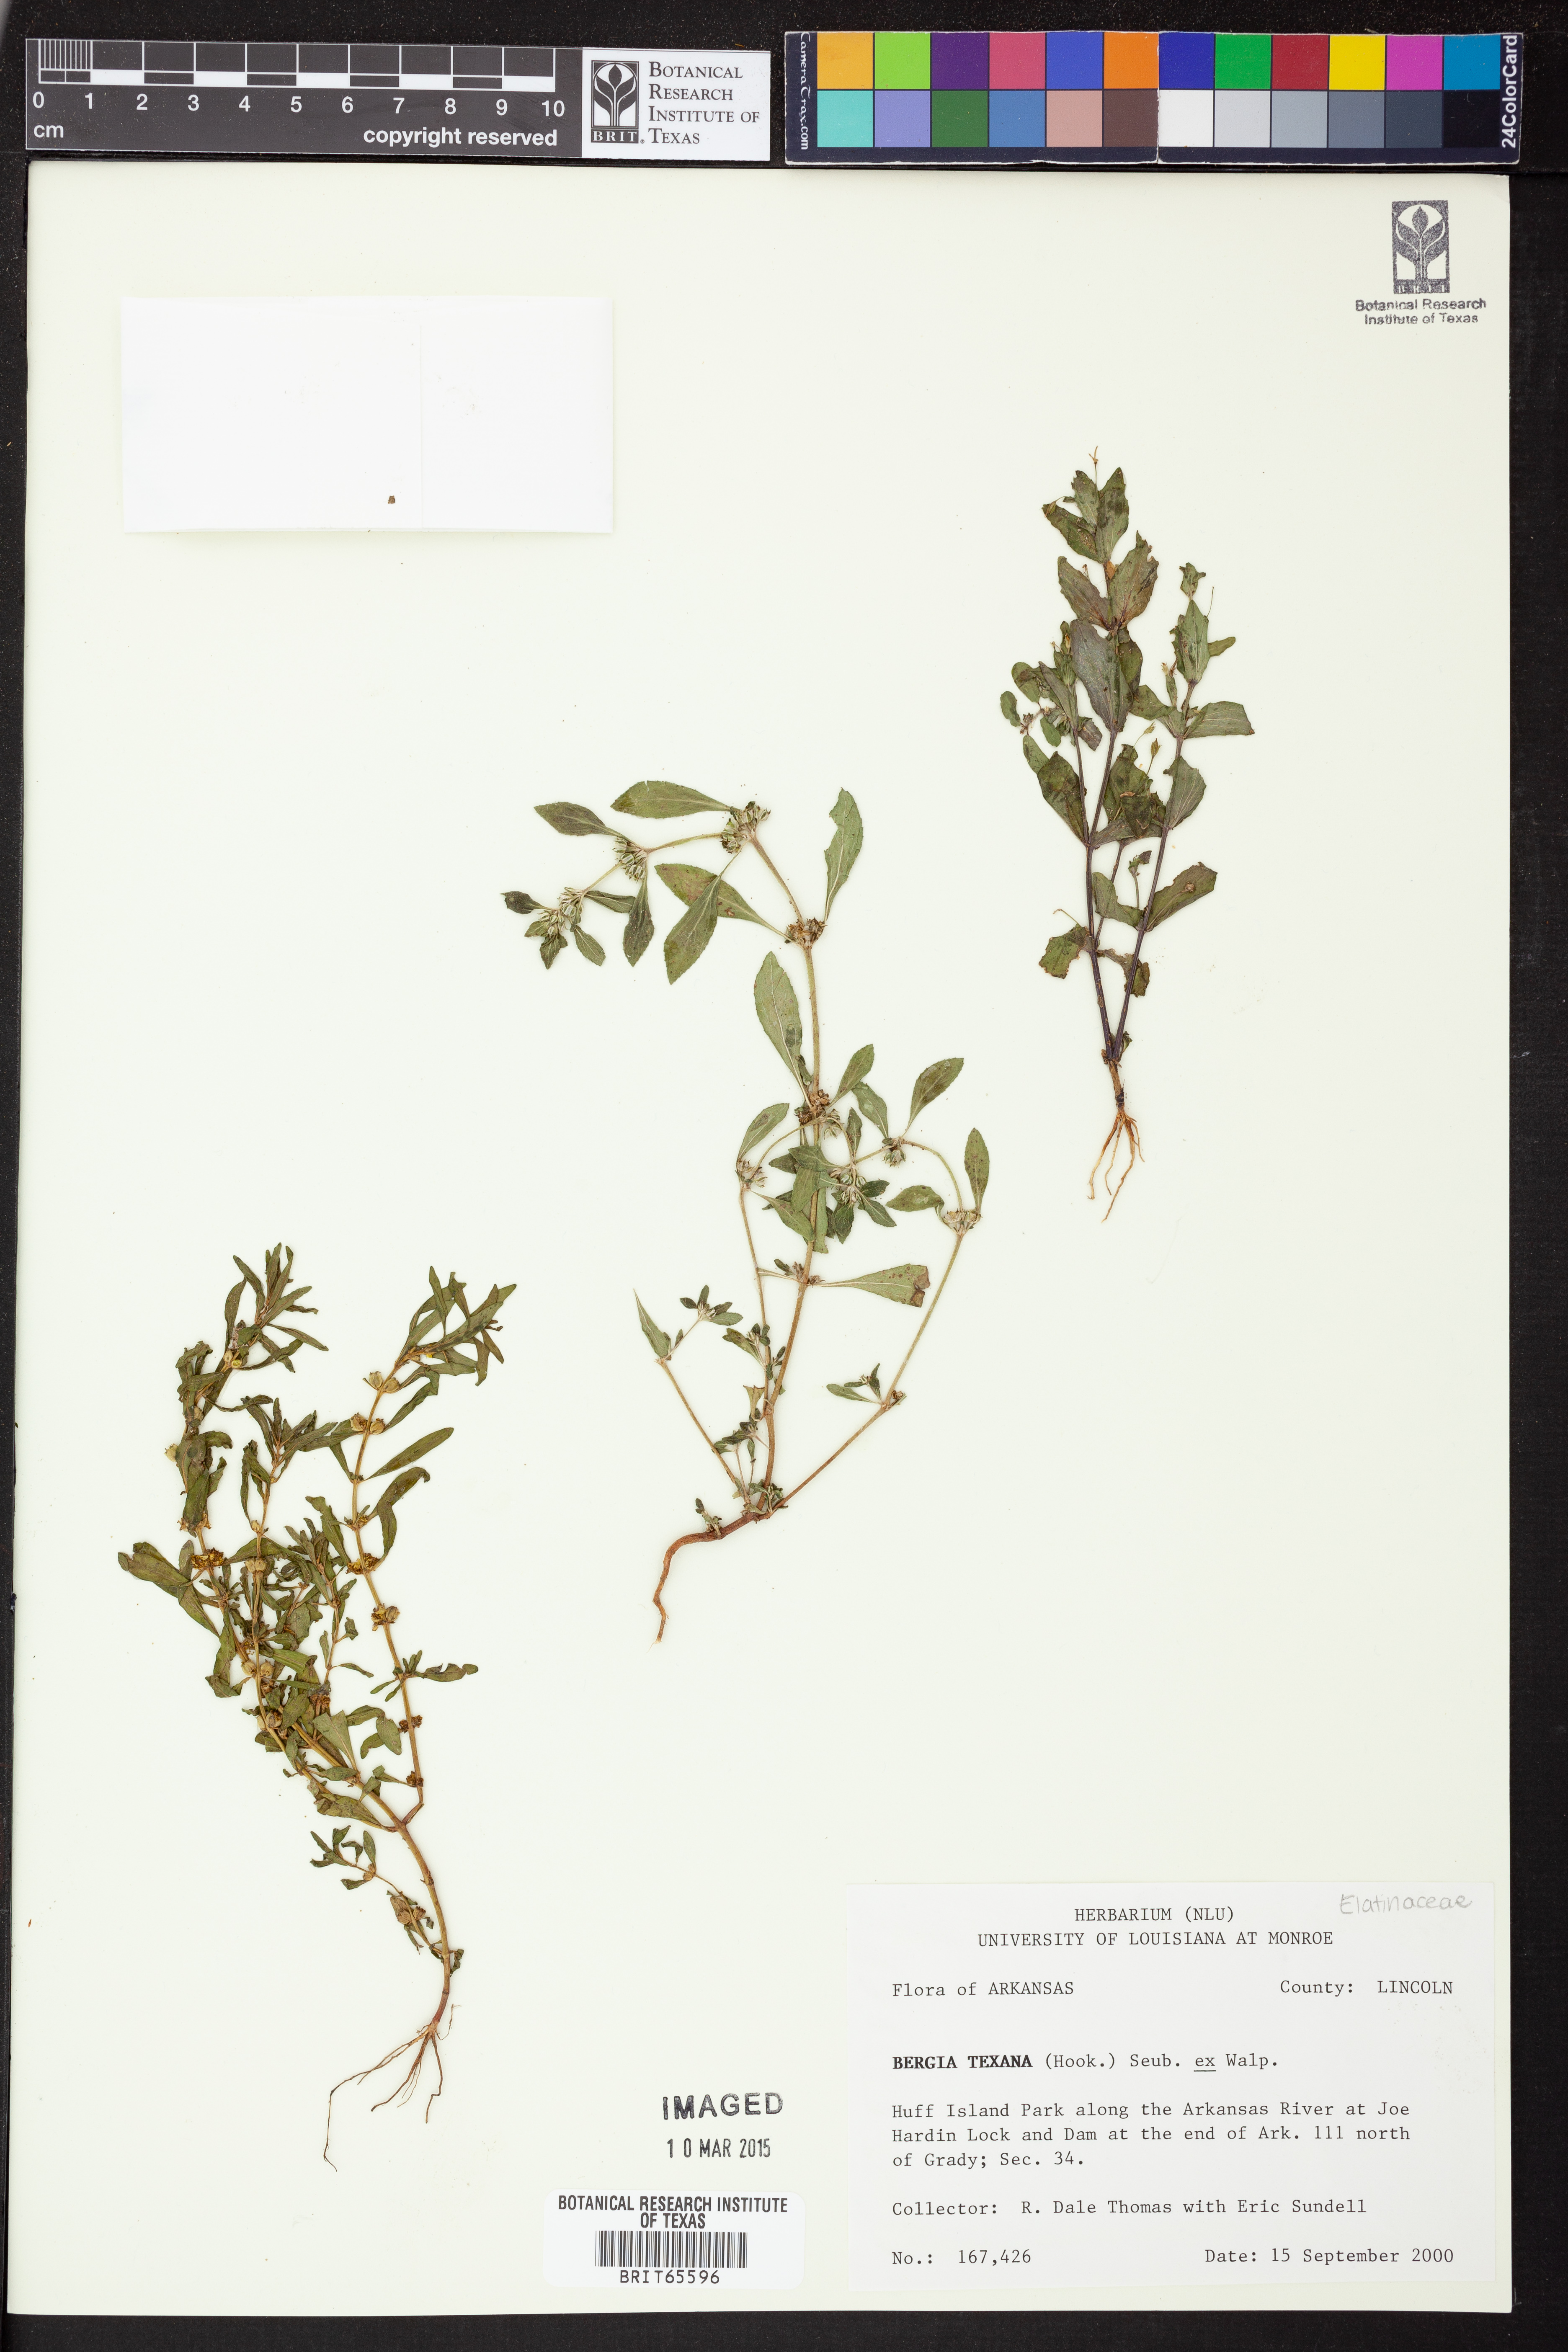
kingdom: Plantae
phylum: Tracheophyta
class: Magnoliopsida
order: Malpighiales
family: Elatinaceae
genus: Bergia
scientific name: Bergia
